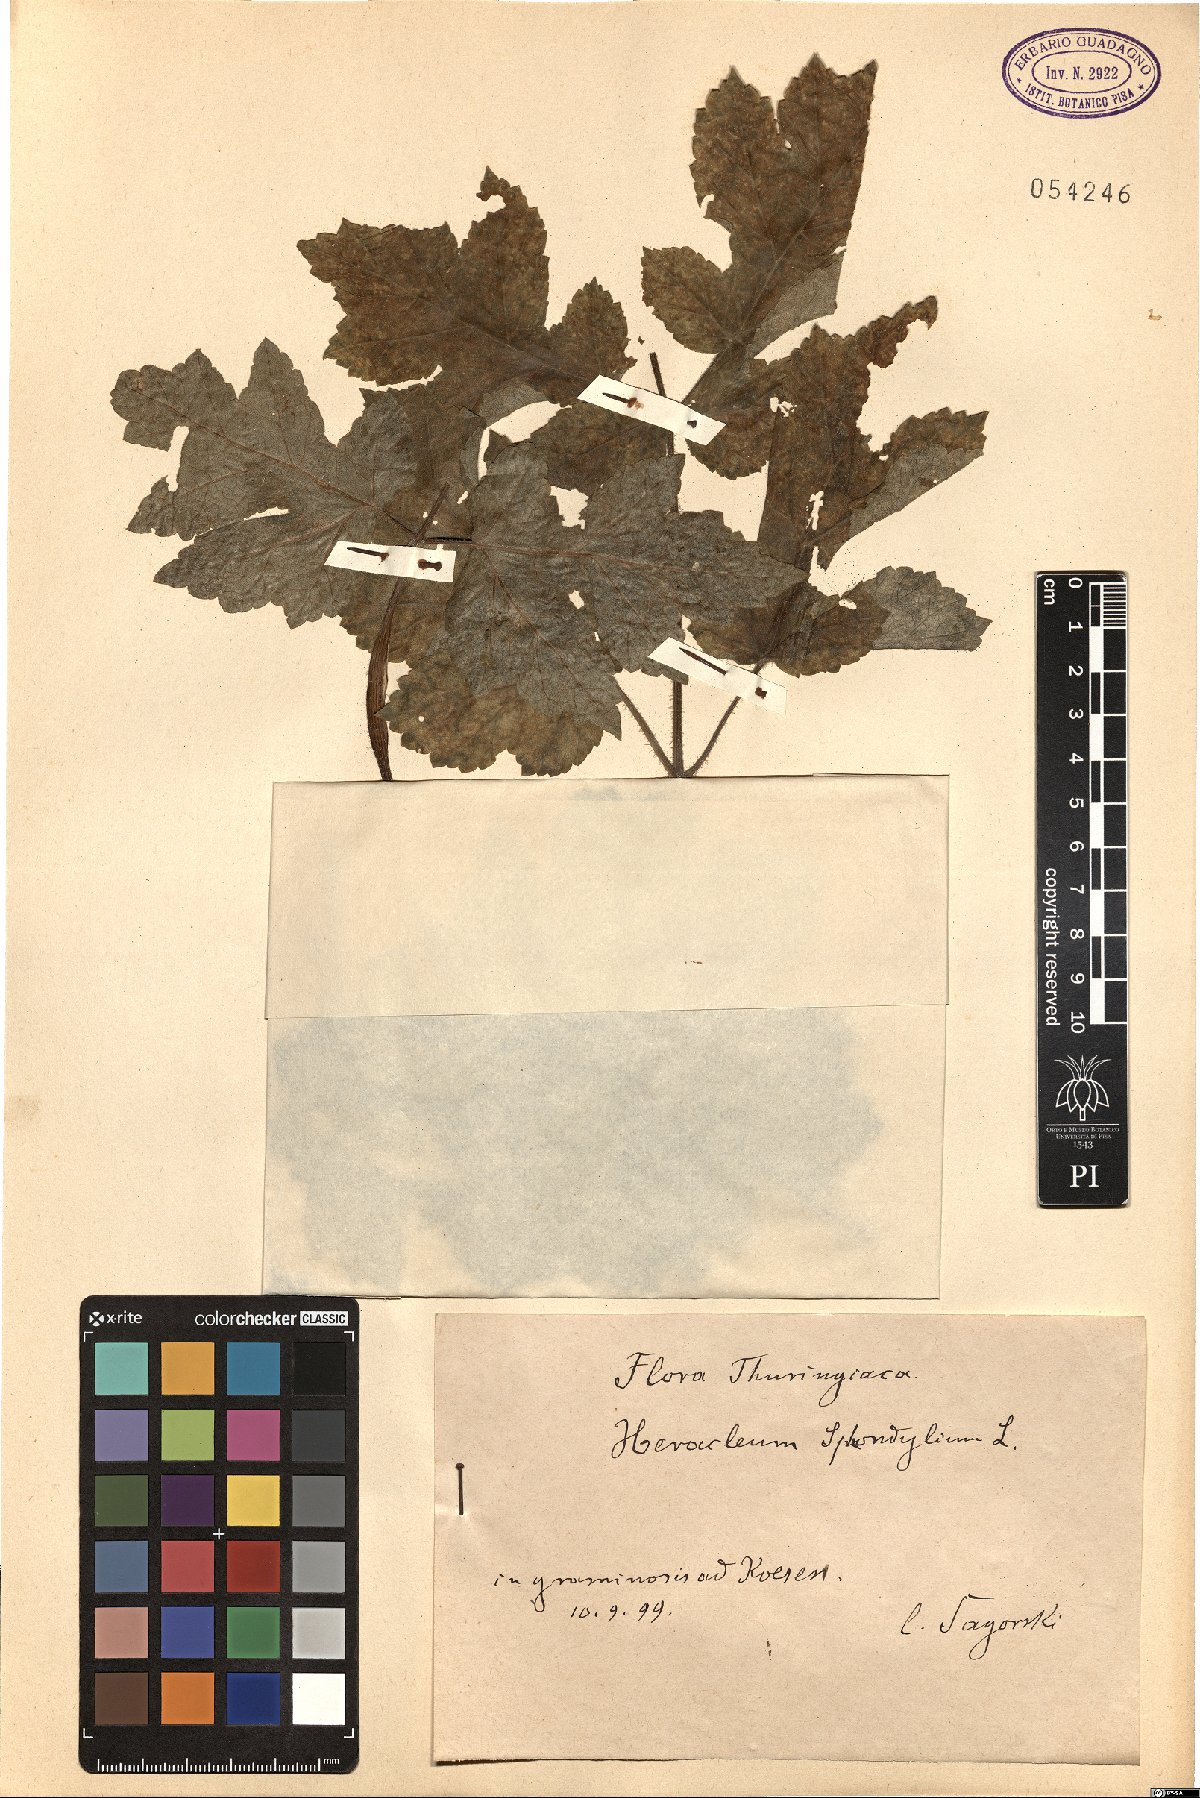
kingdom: Plantae
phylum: Tracheophyta
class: Magnoliopsida
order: Apiales
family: Apiaceae
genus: Heracleum
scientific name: Heracleum sphondylium
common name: Hogweed
